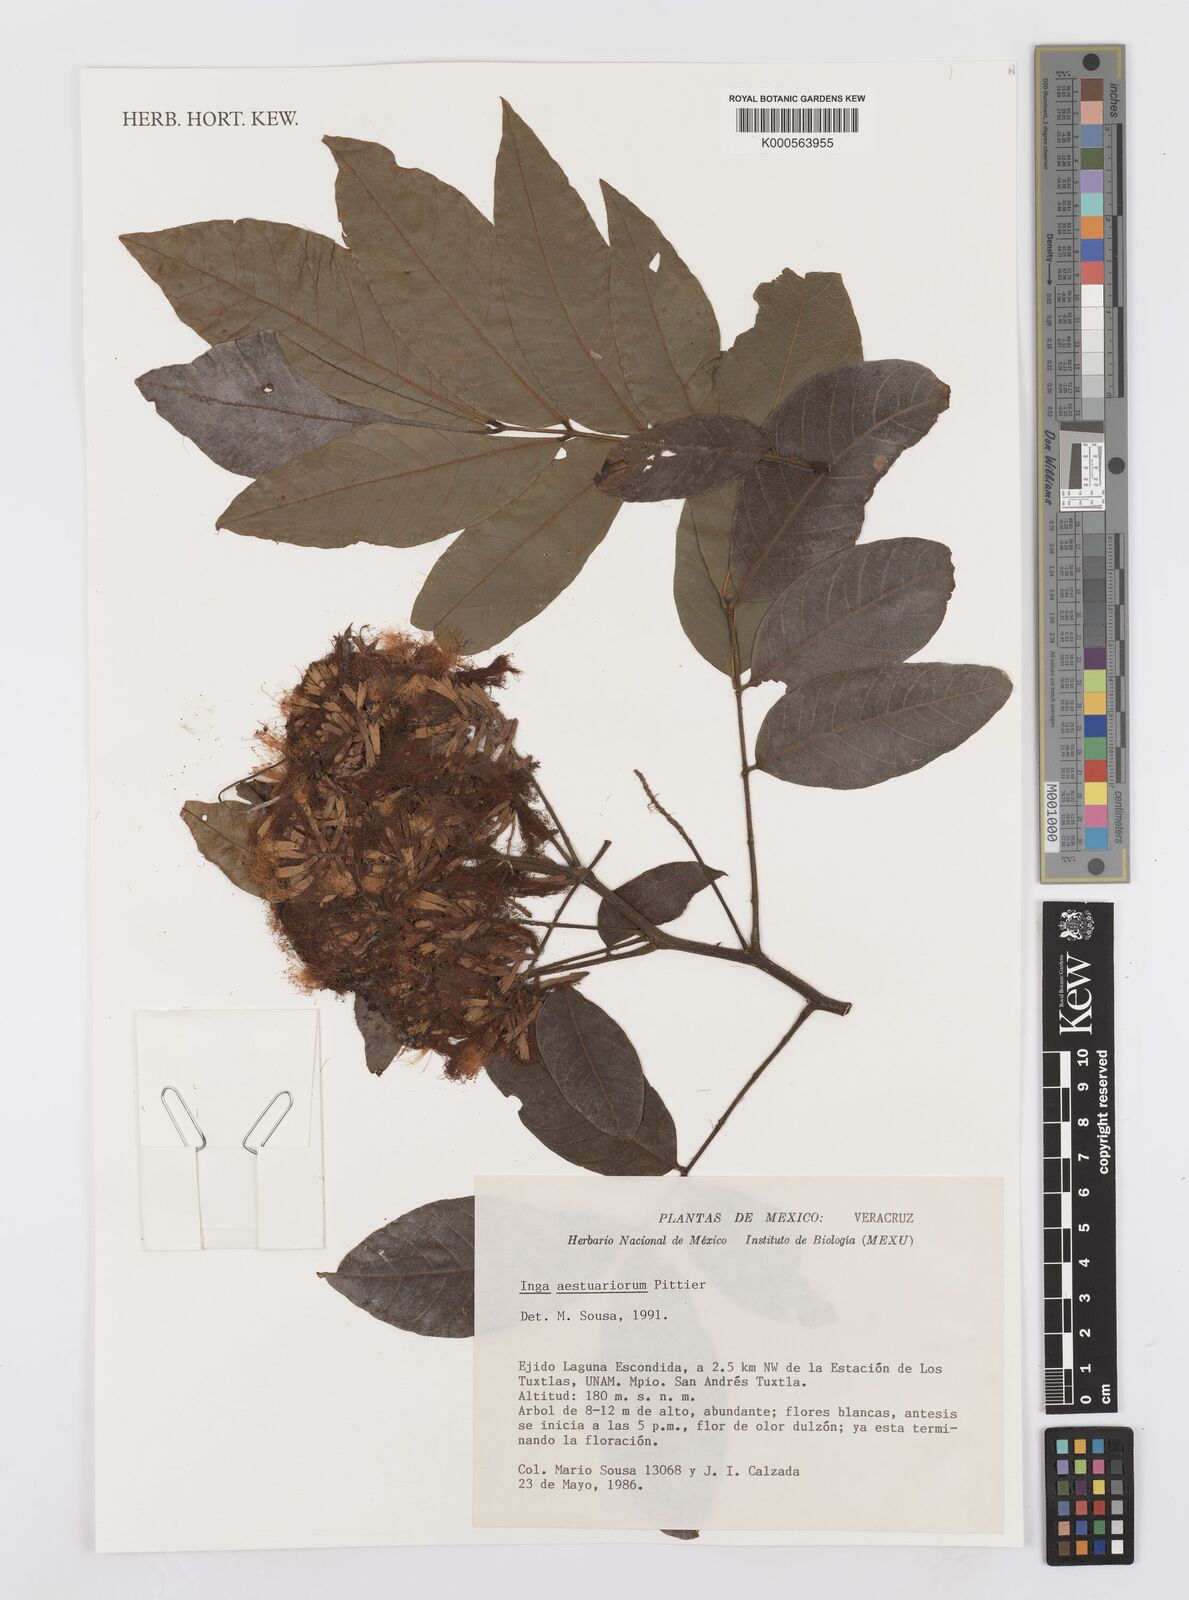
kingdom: Plantae
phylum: Tracheophyta
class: Magnoliopsida
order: Fabales
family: Fabaceae
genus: Inga
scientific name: Inga multijuga
